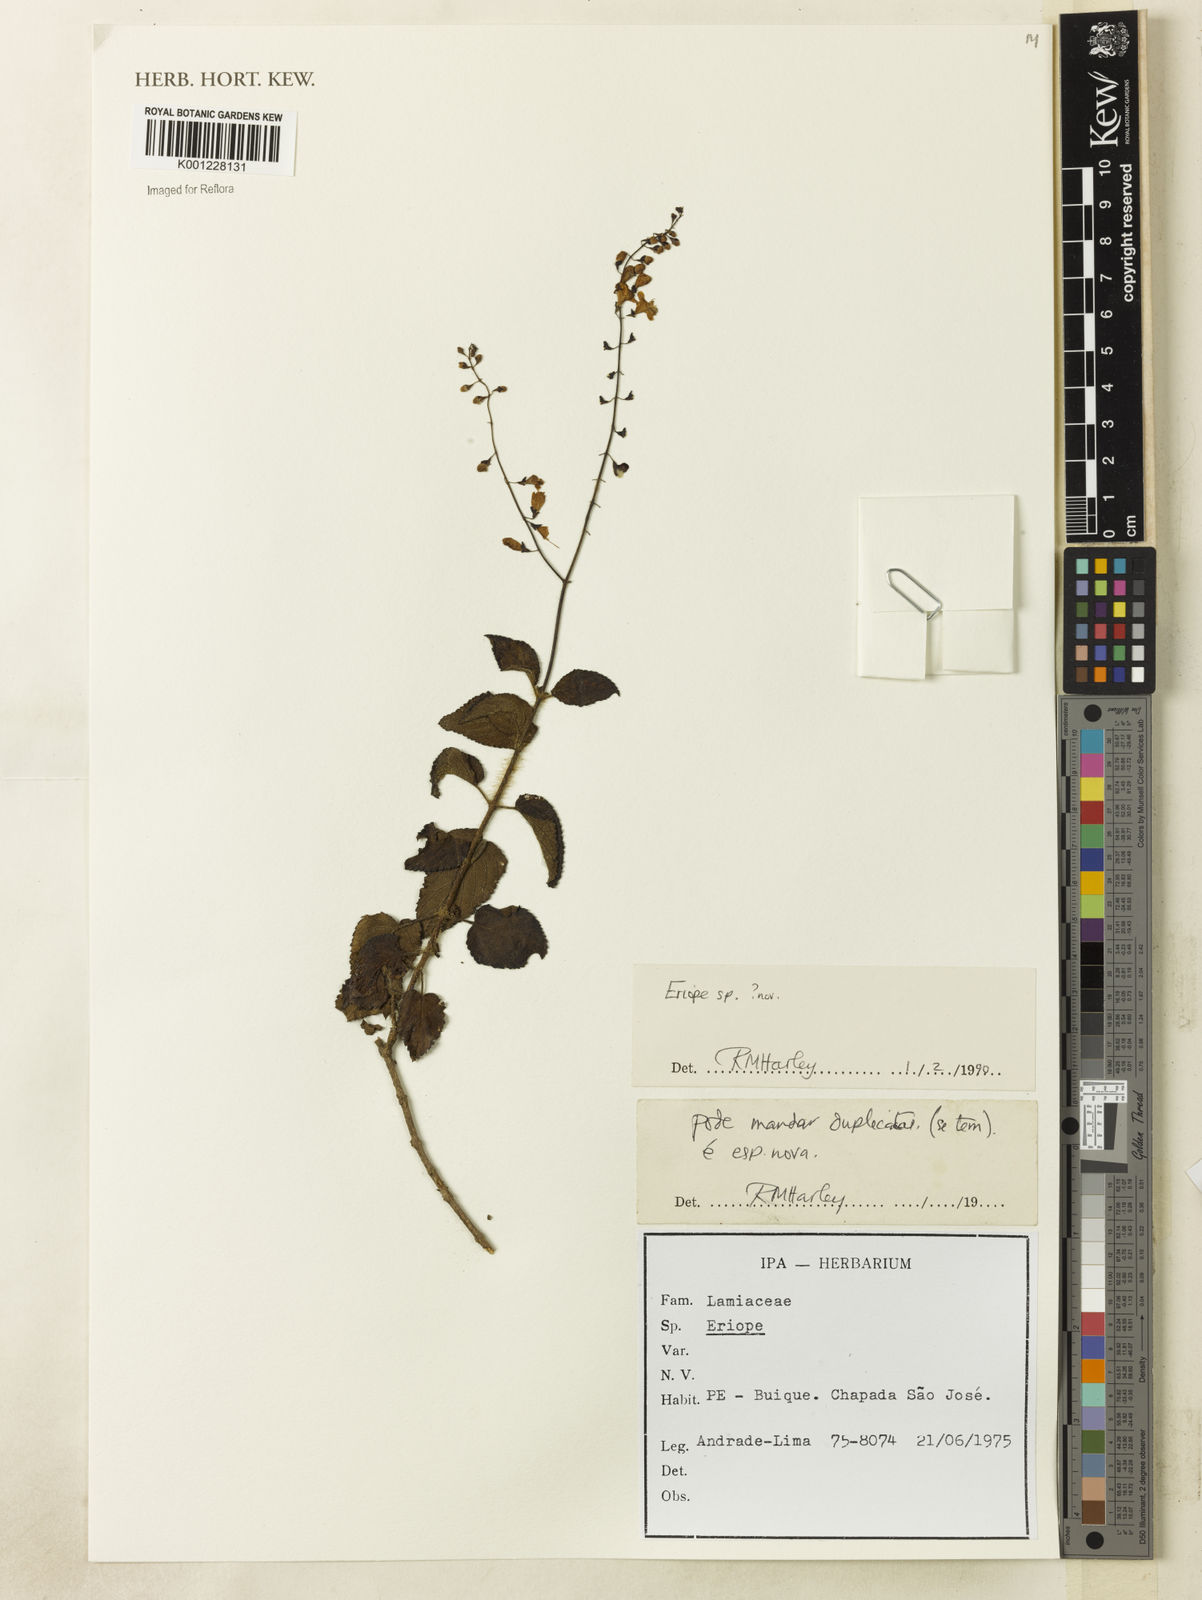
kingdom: Plantae
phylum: Tracheophyta
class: Magnoliopsida
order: Lamiales
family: Lamiaceae
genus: Eriope
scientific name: Eriope
